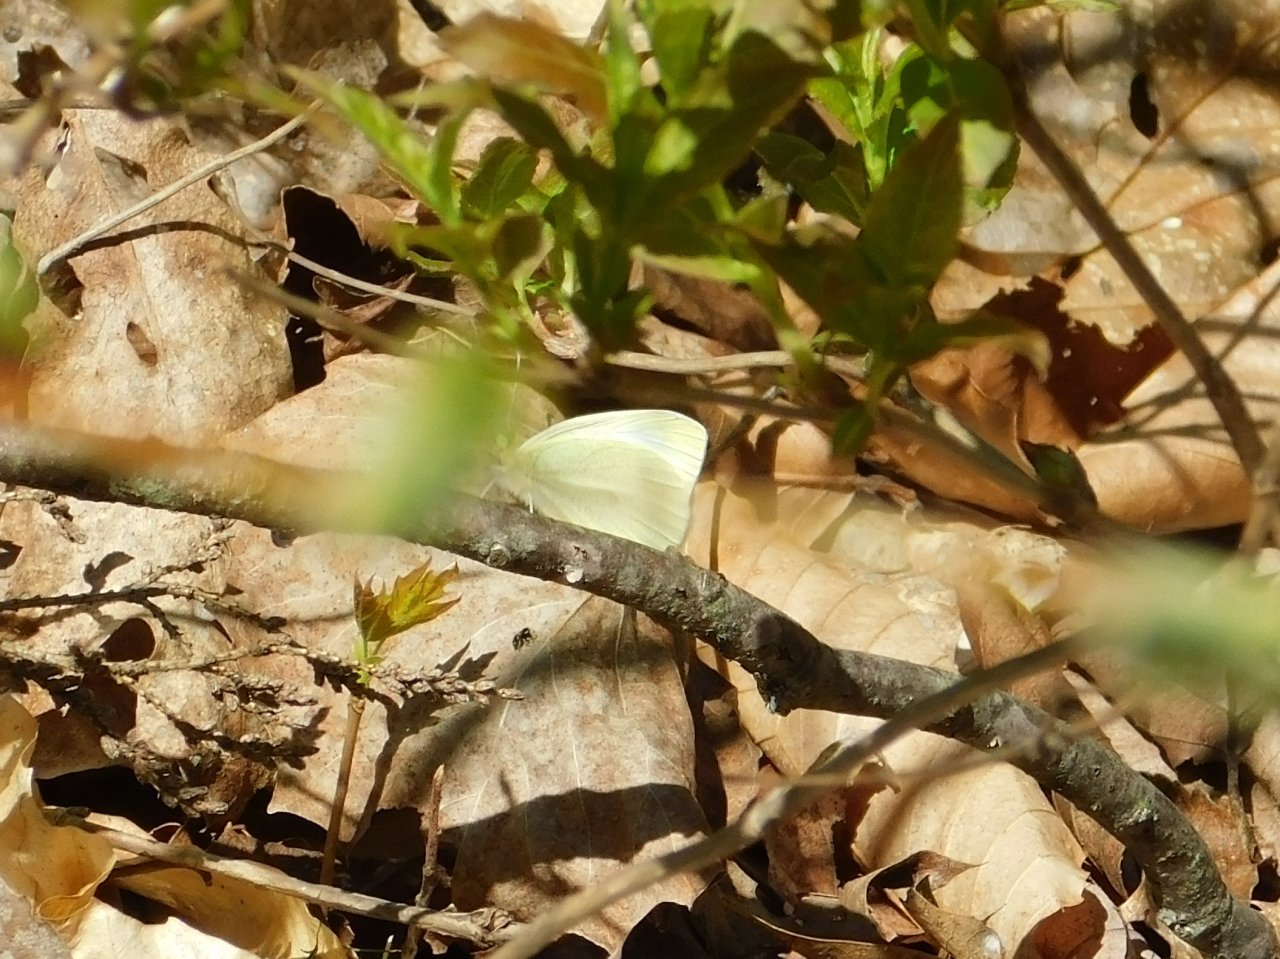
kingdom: Animalia
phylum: Arthropoda
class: Insecta
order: Lepidoptera
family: Pieridae
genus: Pieris
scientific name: Pieris rapae
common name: Cabbage White
